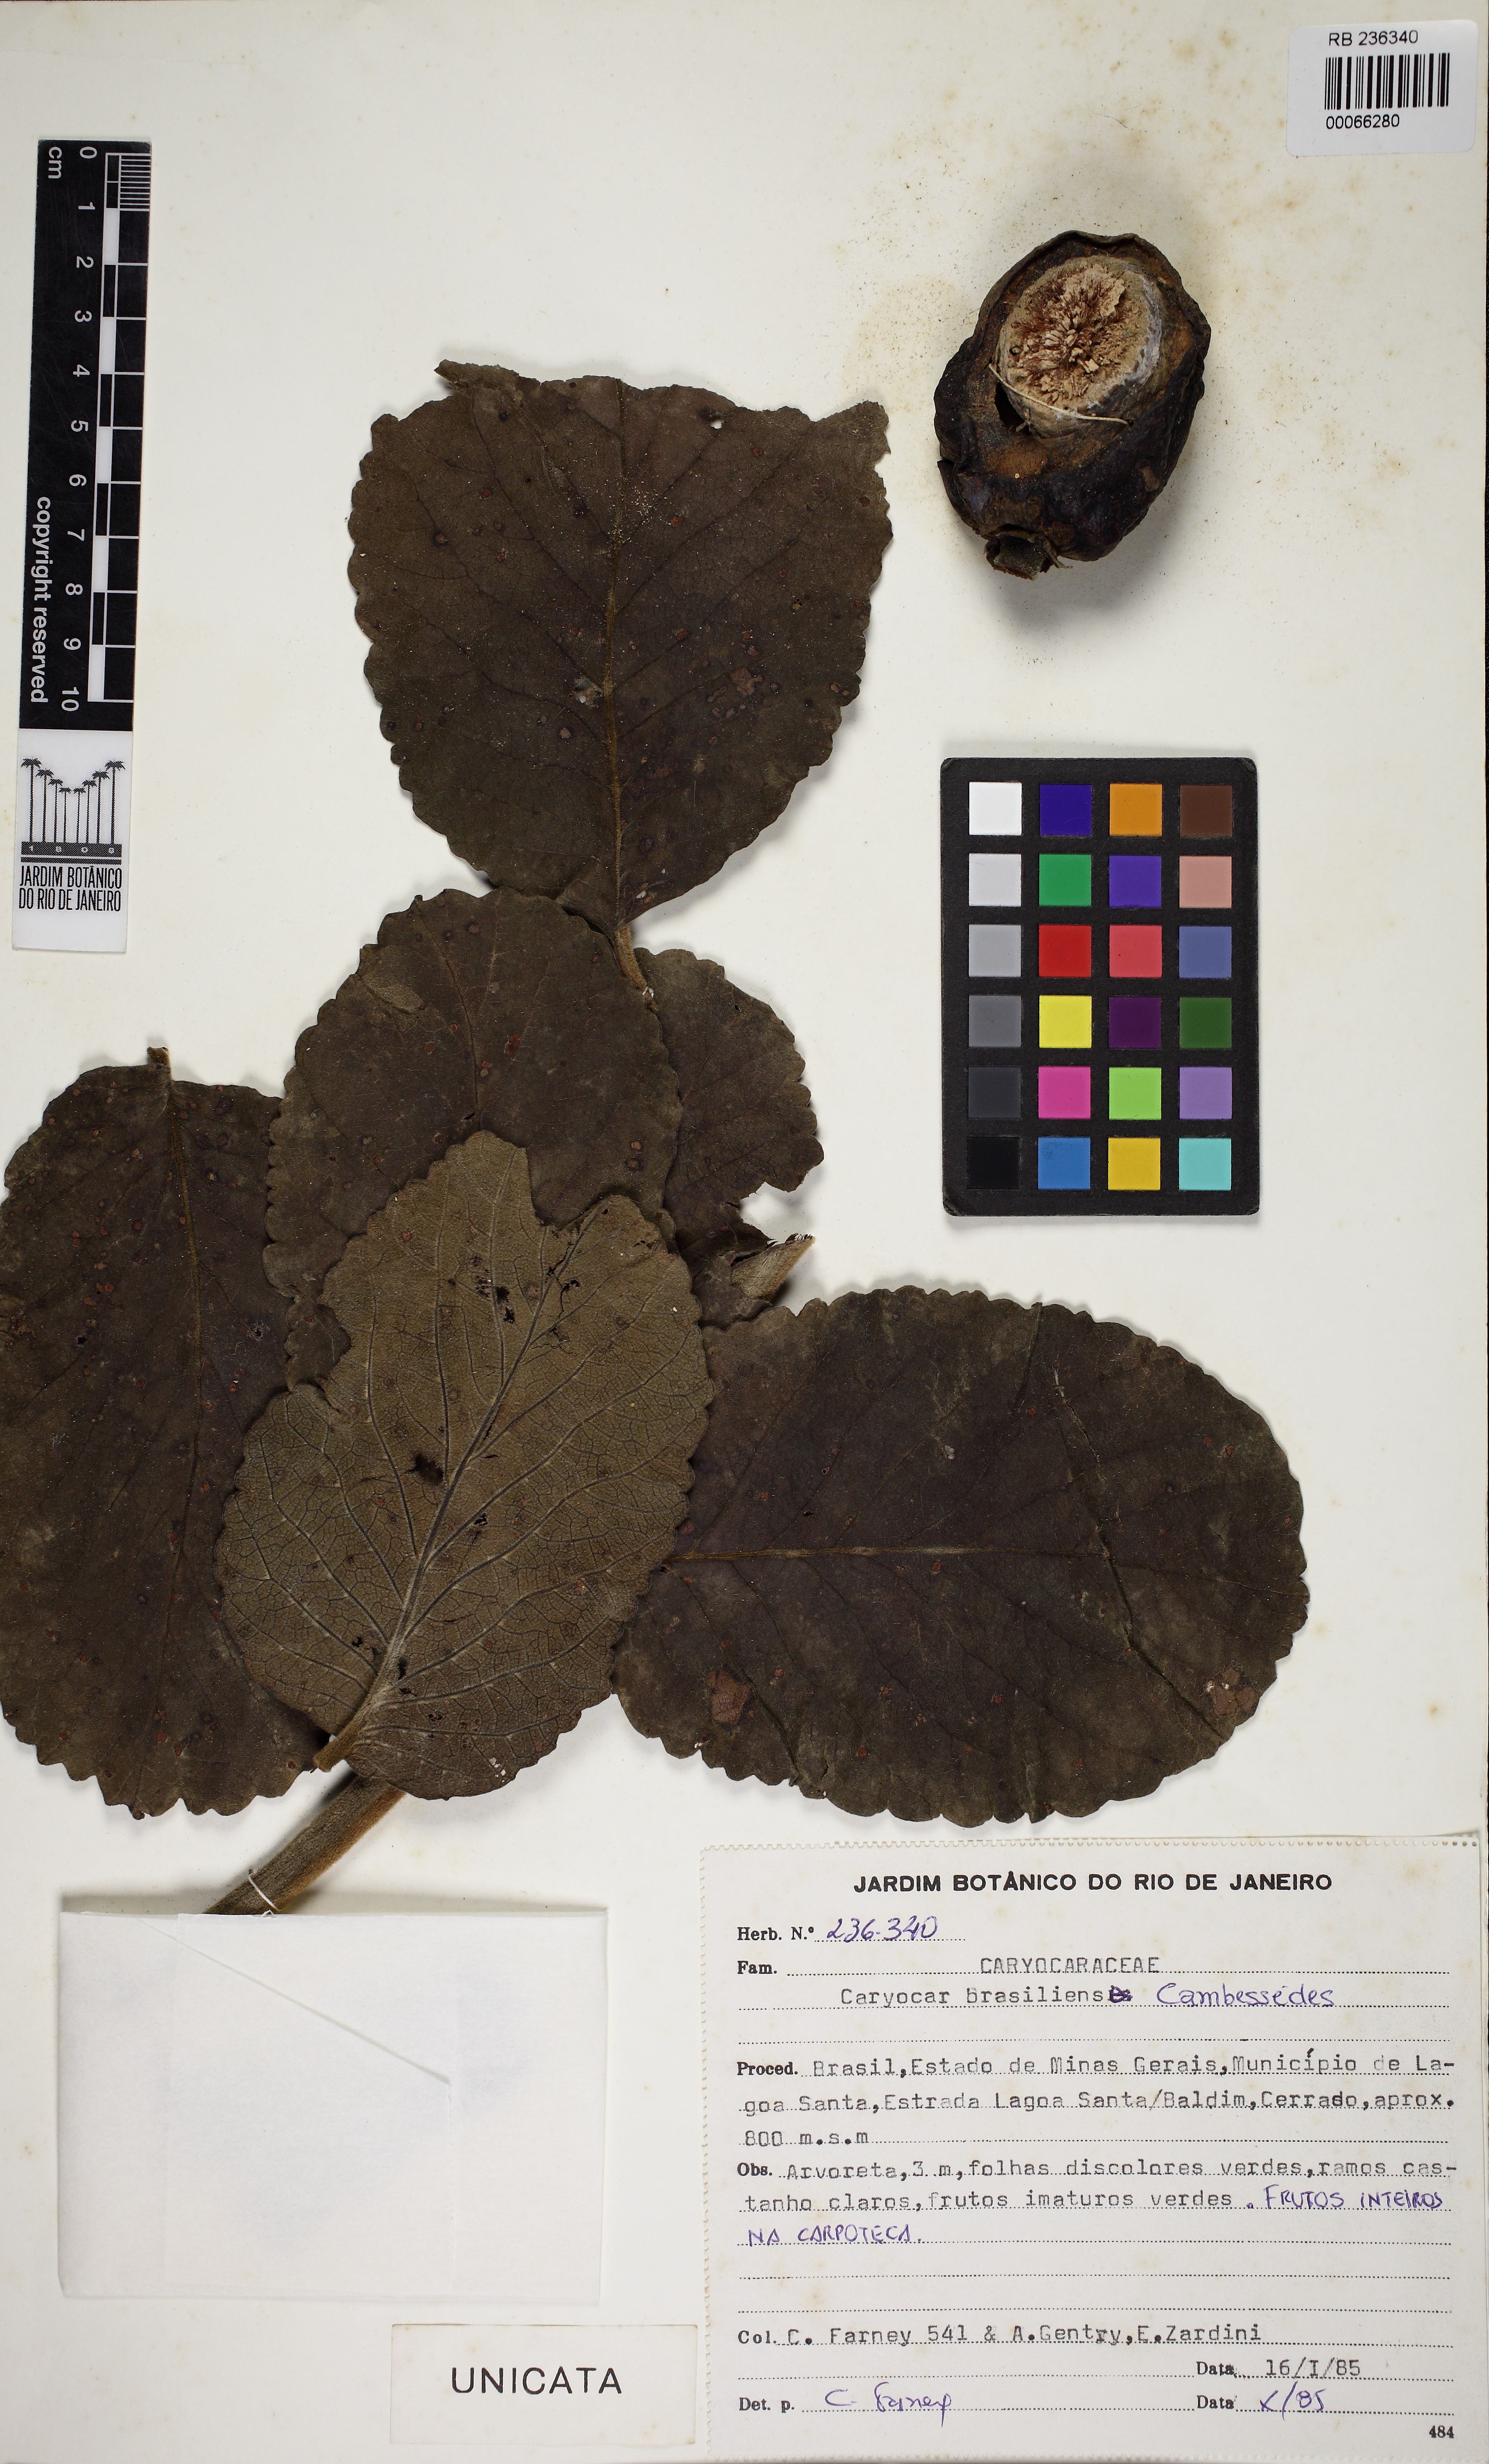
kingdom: Plantae
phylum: Tracheophyta
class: Magnoliopsida
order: Malpighiales
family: Caryocaraceae
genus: Caryocar
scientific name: Caryocar brasiliense
